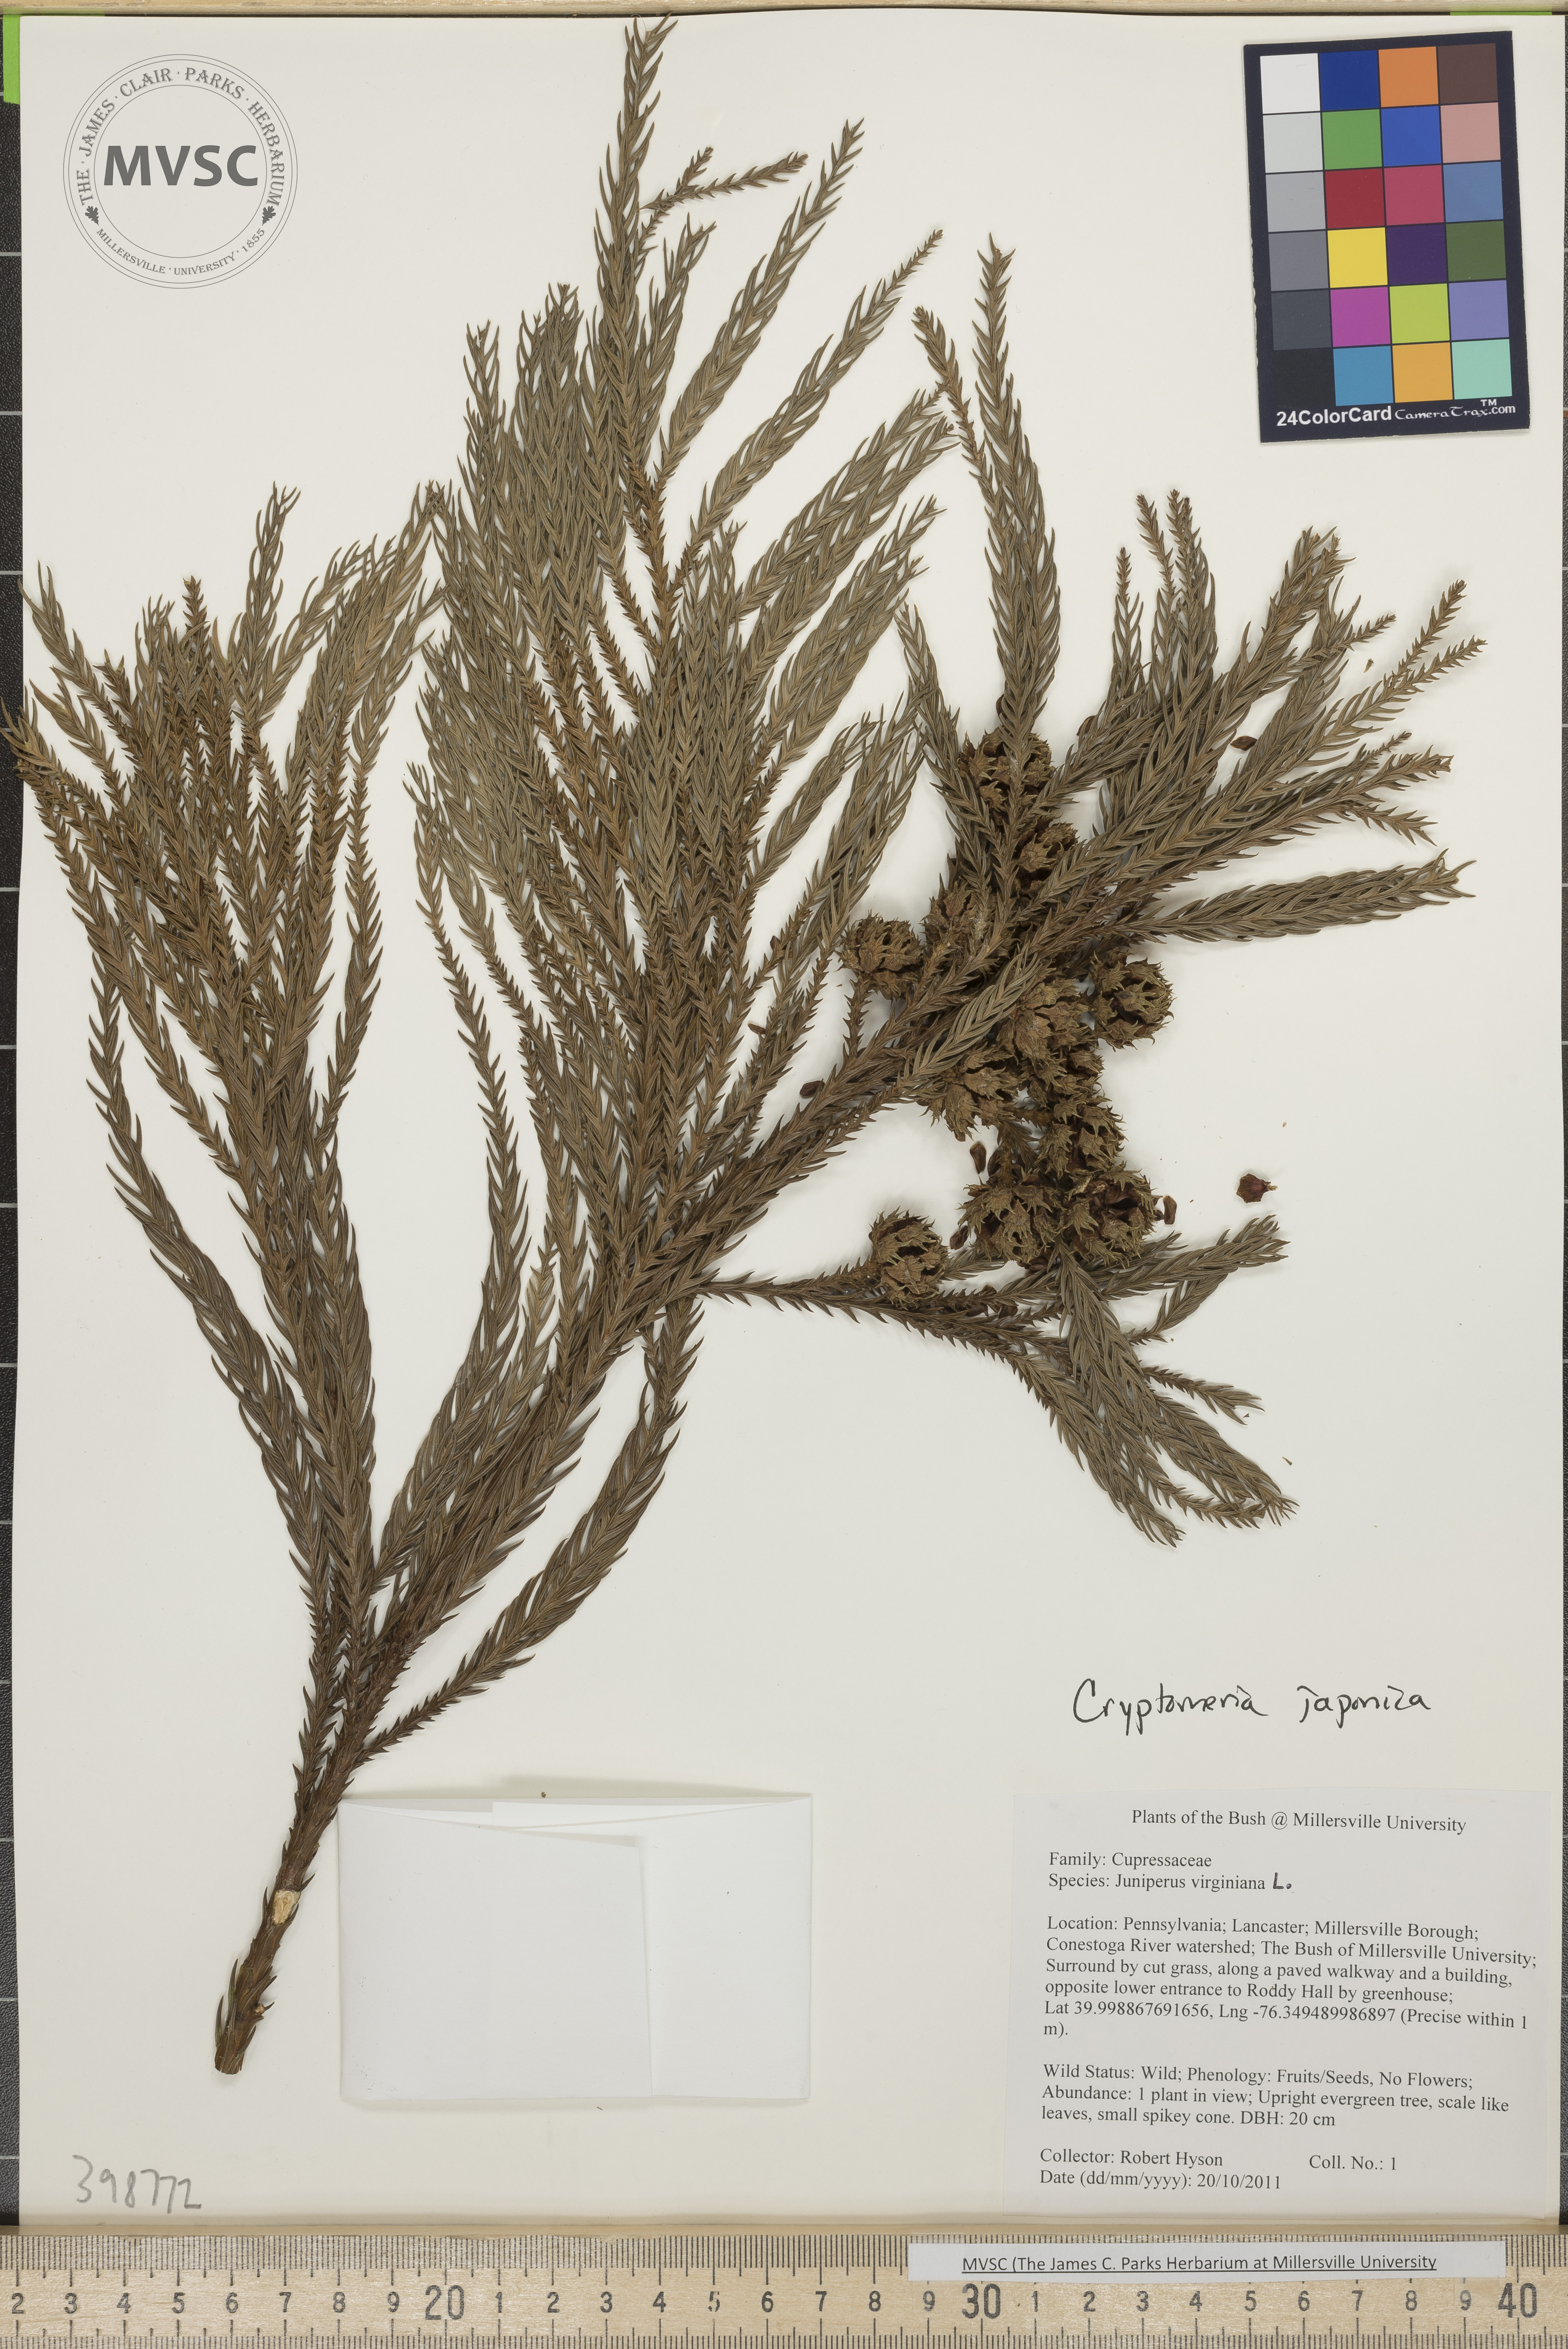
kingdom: Plantae
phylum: Tracheophyta
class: Pinopsida
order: Pinales
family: Cupressaceae
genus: Cryptomeria
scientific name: Cryptomeria japonica
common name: Japanese-cedar
